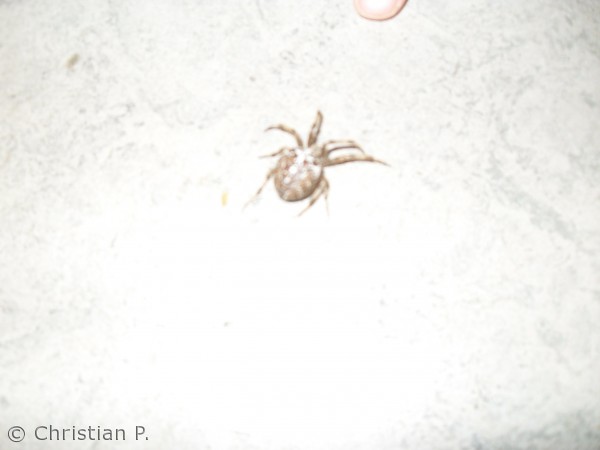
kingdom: Animalia
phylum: Arthropoda
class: Arachnida
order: Araneae
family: Araneidae
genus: Araneus
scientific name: Araneus diadematus
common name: Korsedderkop
